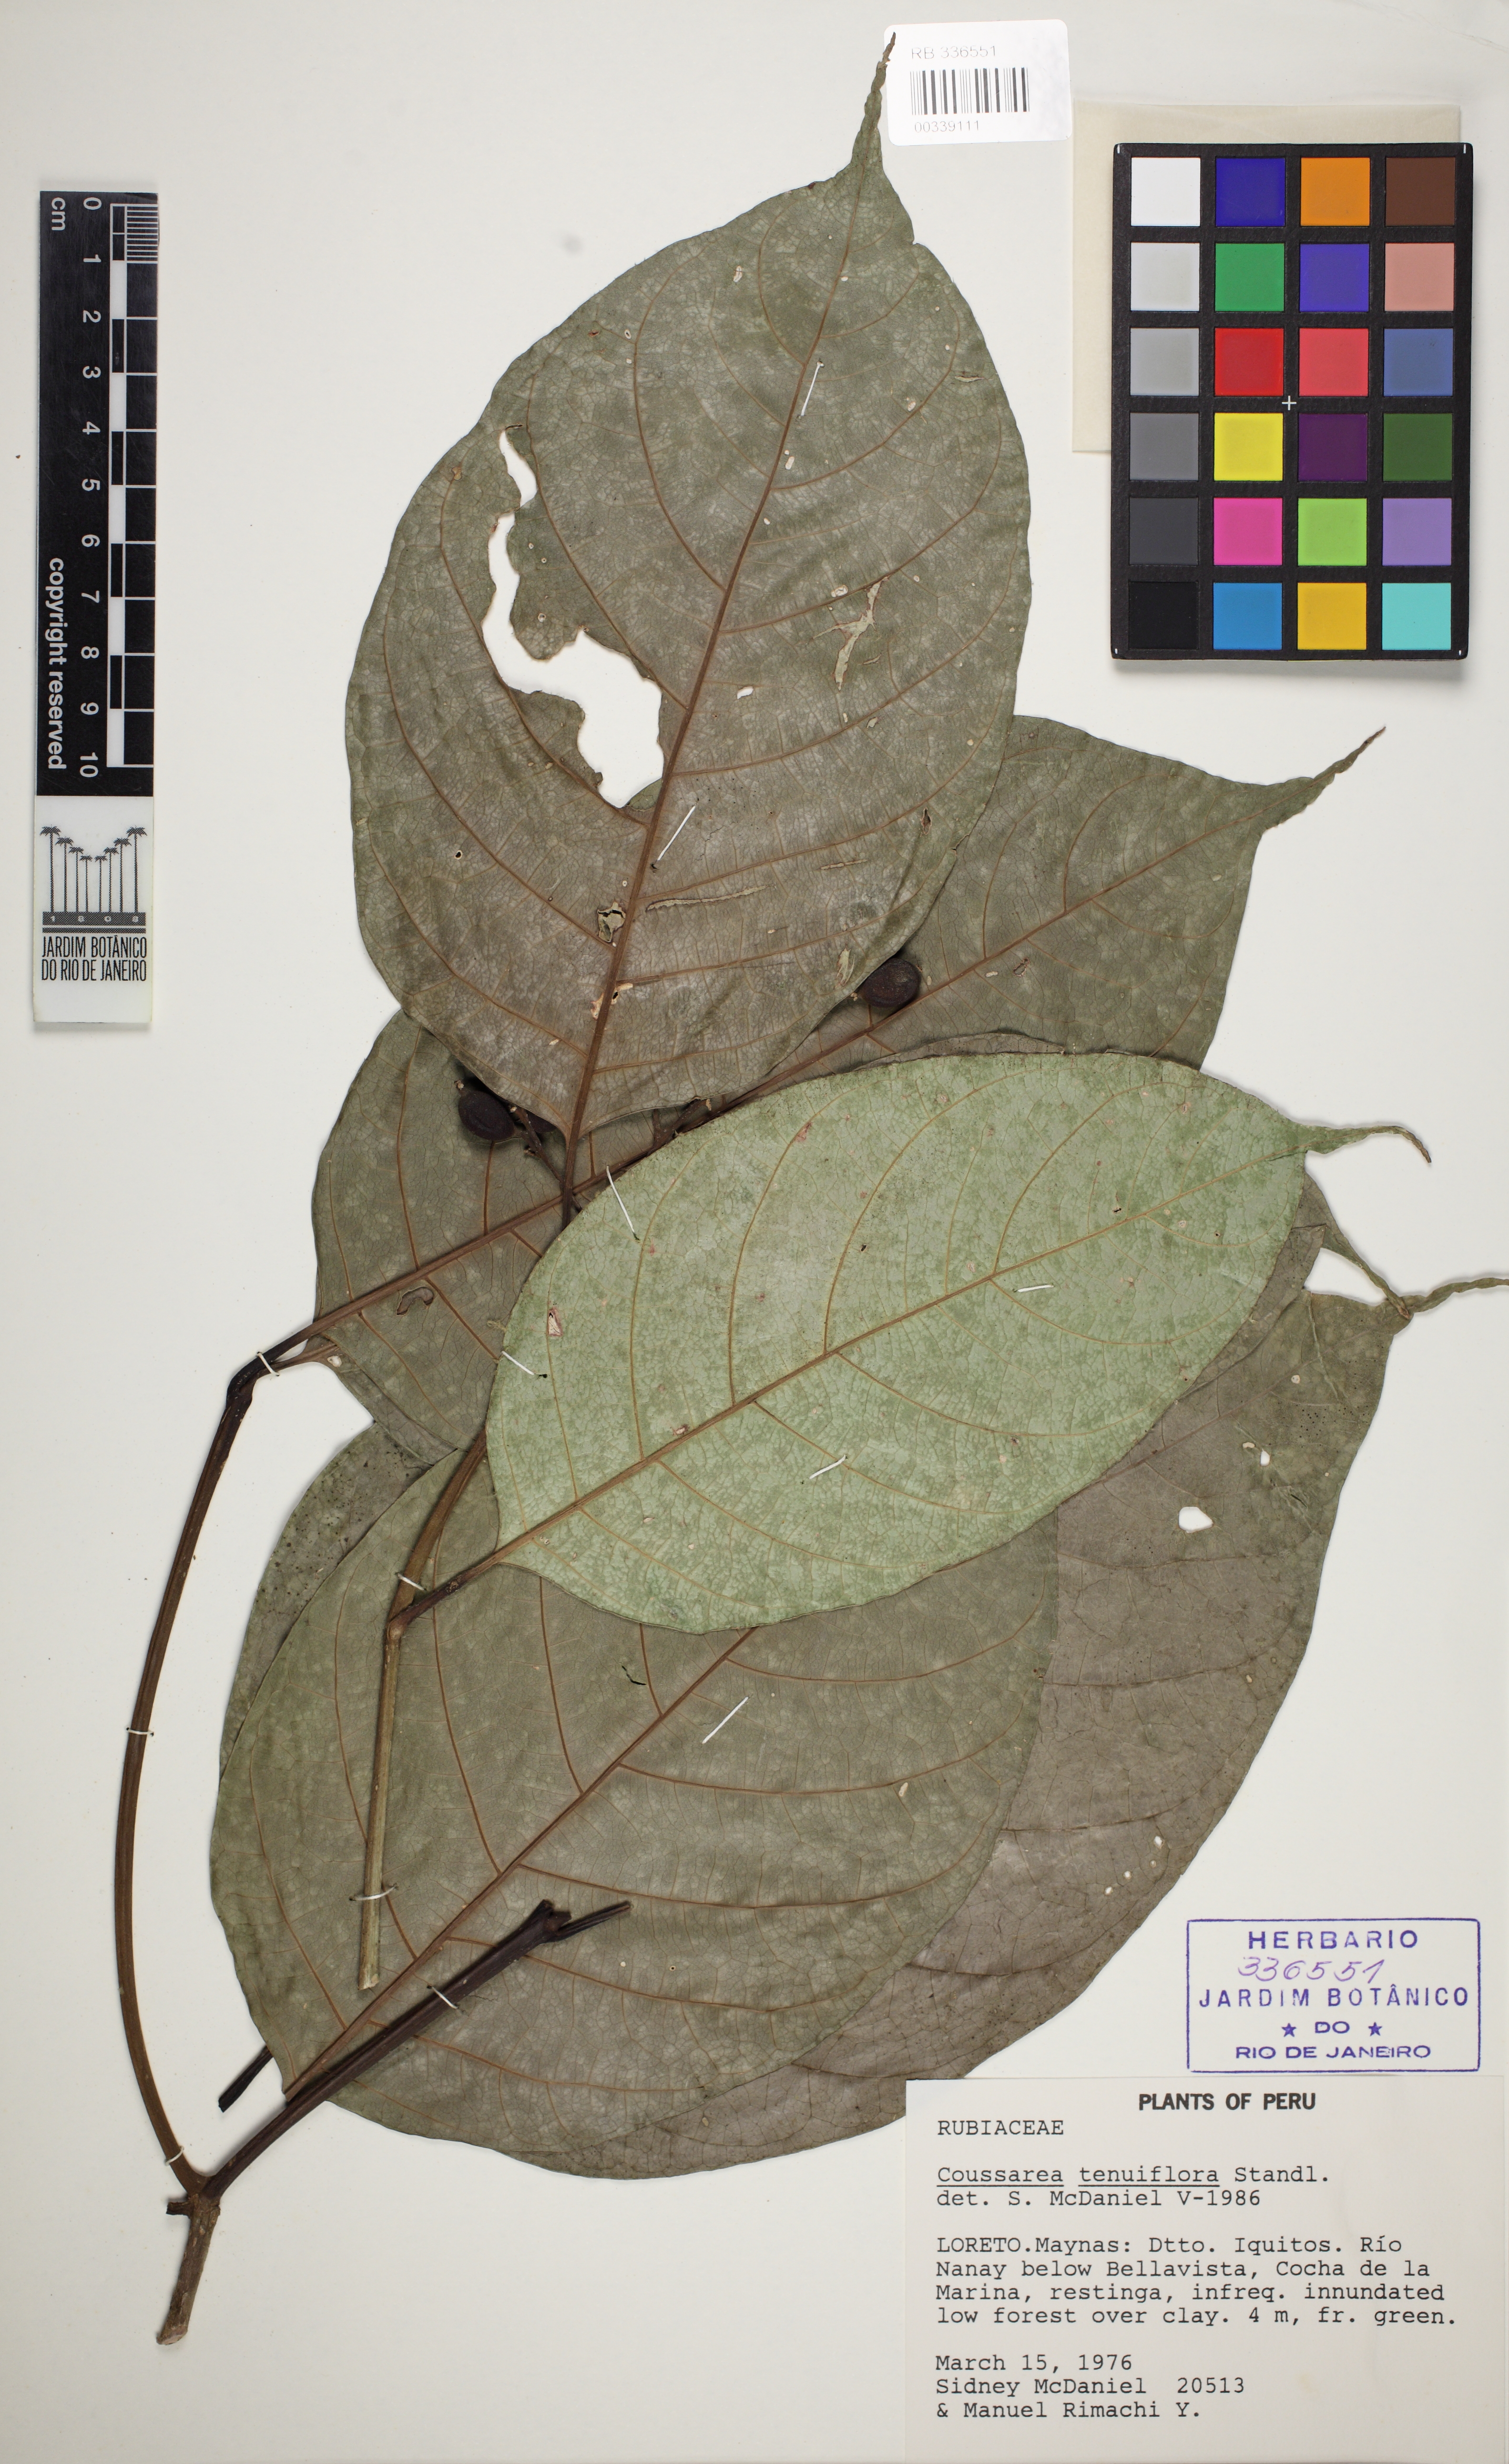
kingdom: Plantae
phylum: Tracheophyta
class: Magnoliopsida
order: Gentianales
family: Rubiaceae
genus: Coussarea
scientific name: Coussarea tenuiflora
